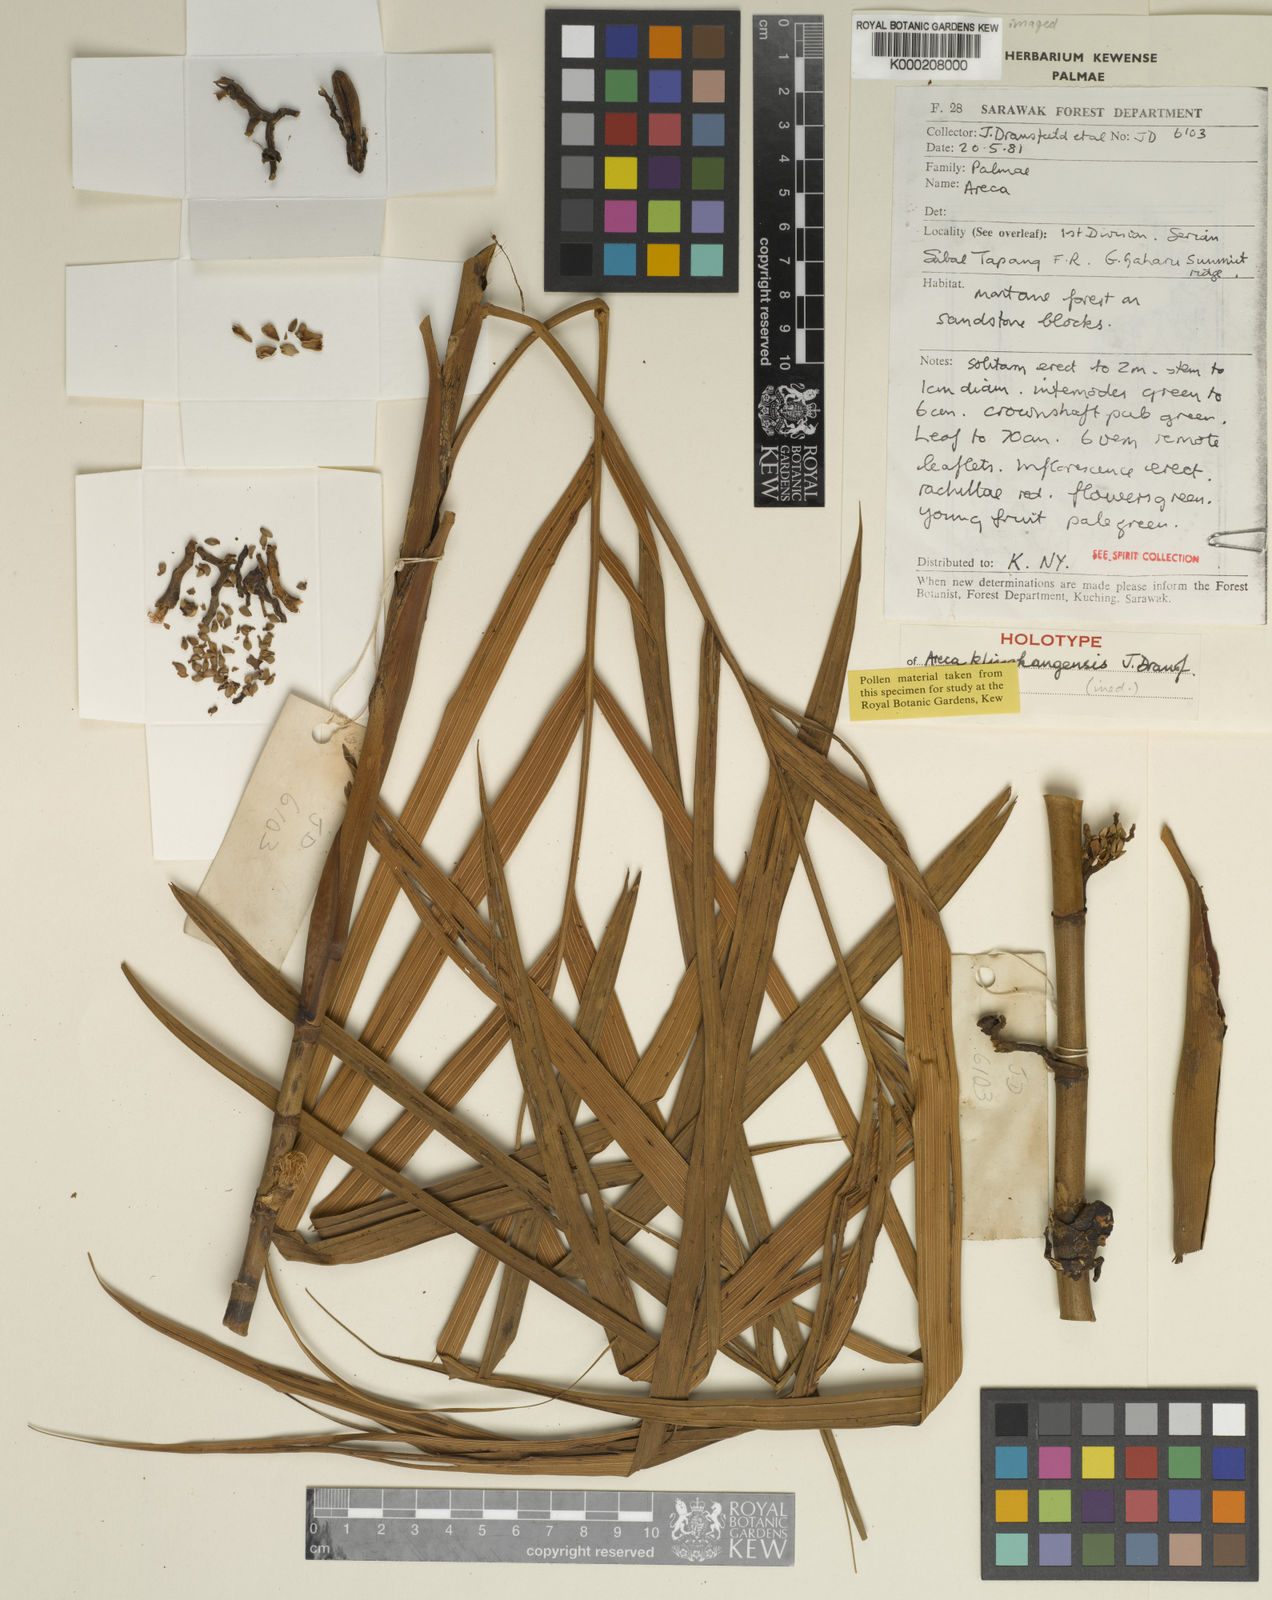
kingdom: Plantae
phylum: Tracheophyta
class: Liliopsida
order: Arecales
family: Arecaceae
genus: Areca
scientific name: Areca
